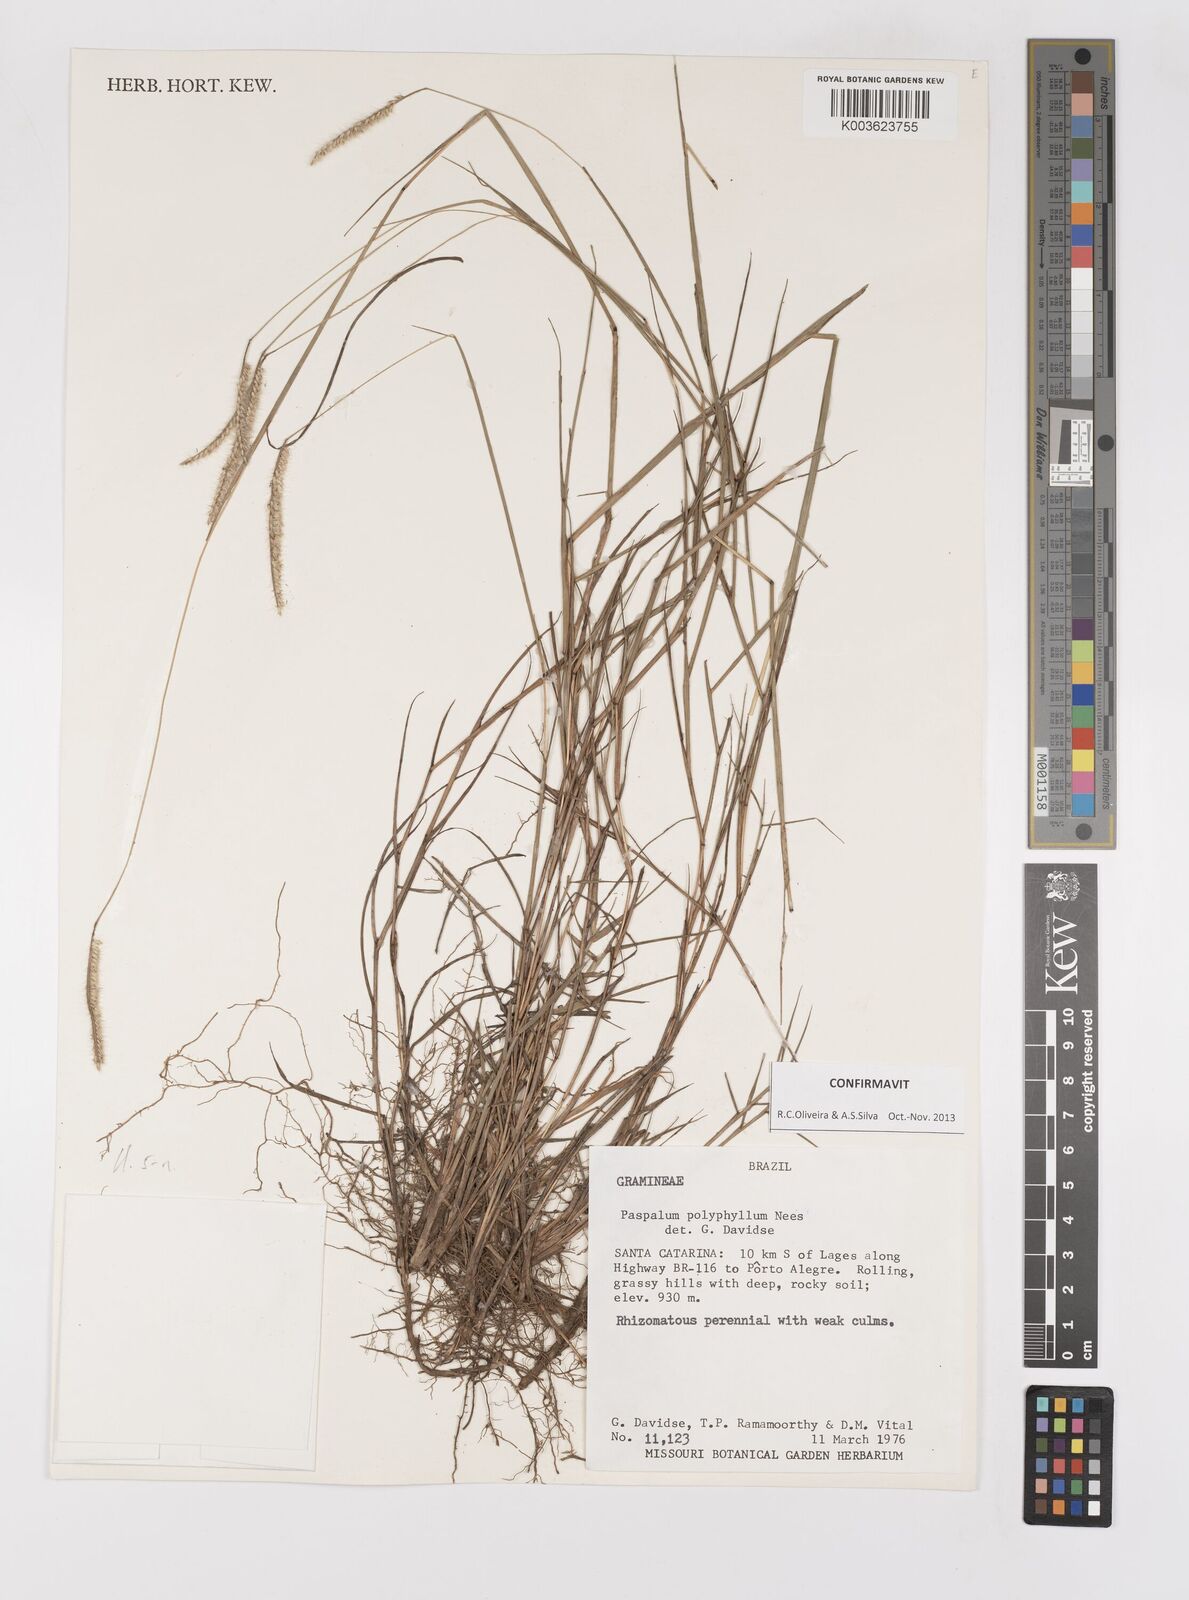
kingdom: Plantae
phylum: Tracheophyta
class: Liliopsida
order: Poales
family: Poaceae
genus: Paspalum
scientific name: Paspalum polyphyllum
